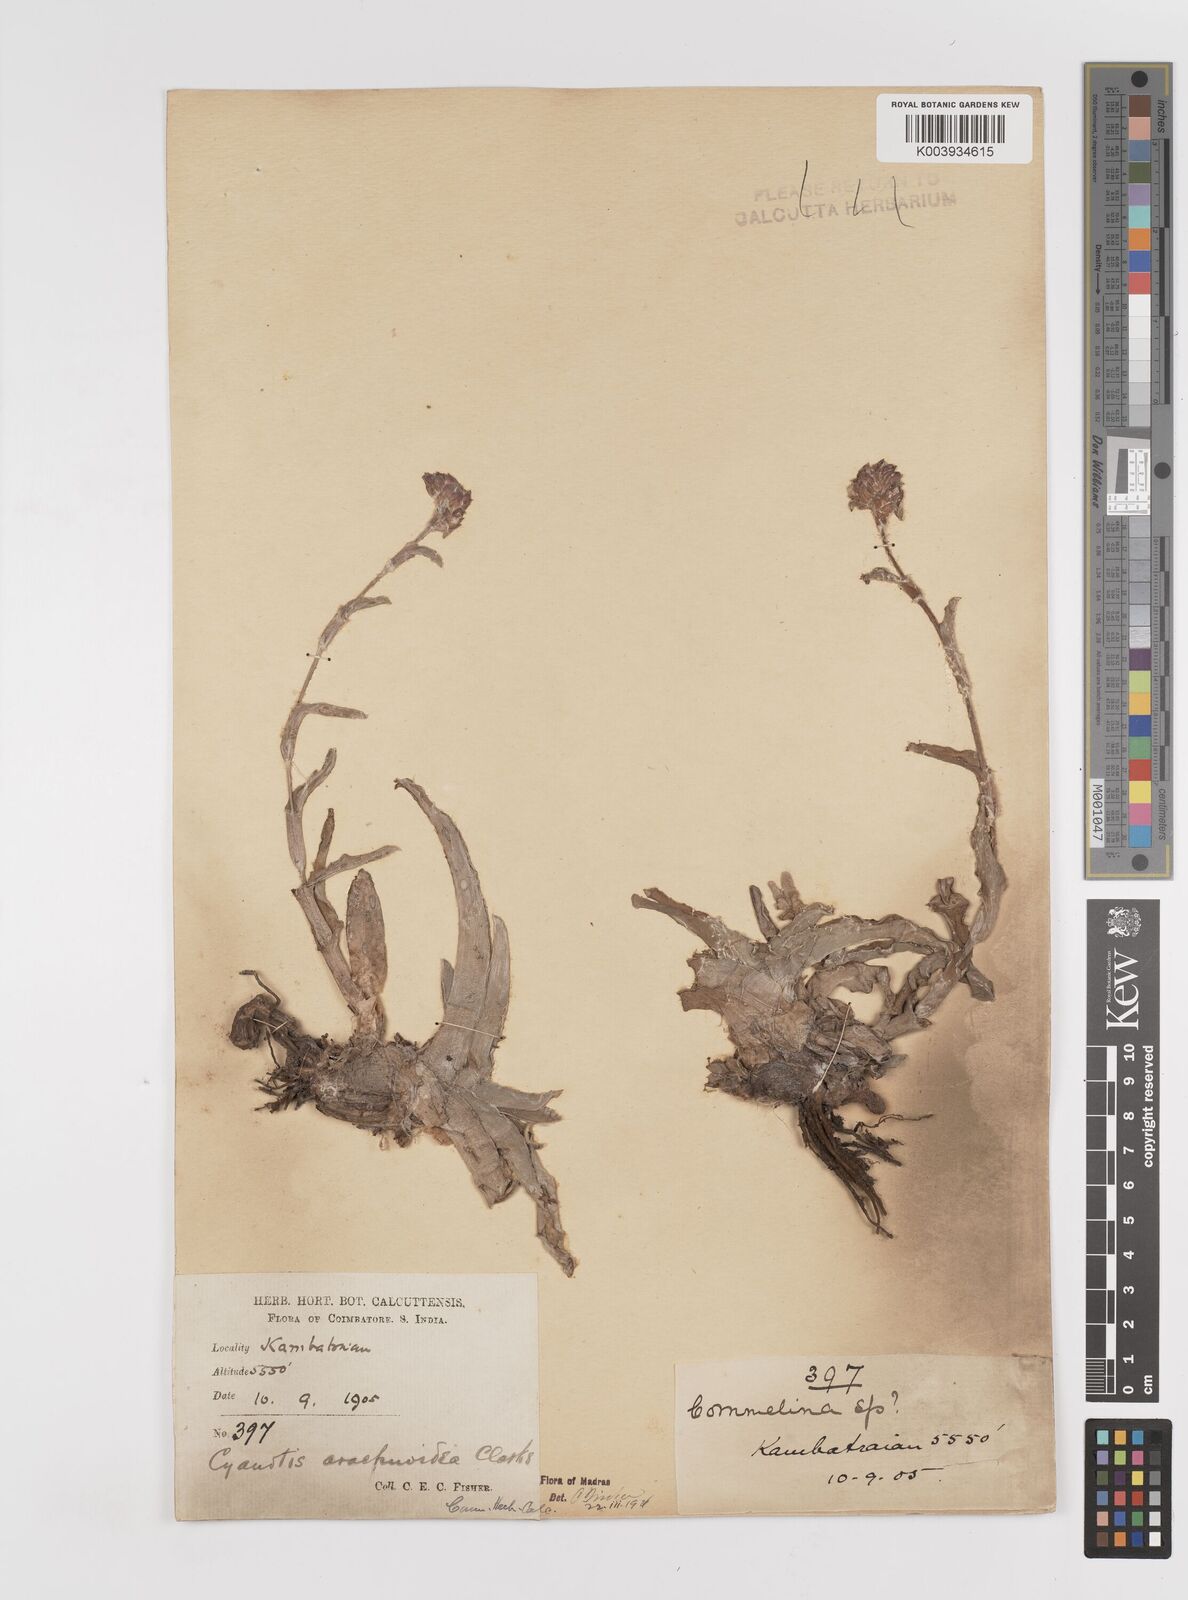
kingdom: Plantae
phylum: Tracheophyta
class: Liliopsida
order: Commelinales
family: Commelinaceae
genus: Cyanotis
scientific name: Cyanotis arachnoidea
